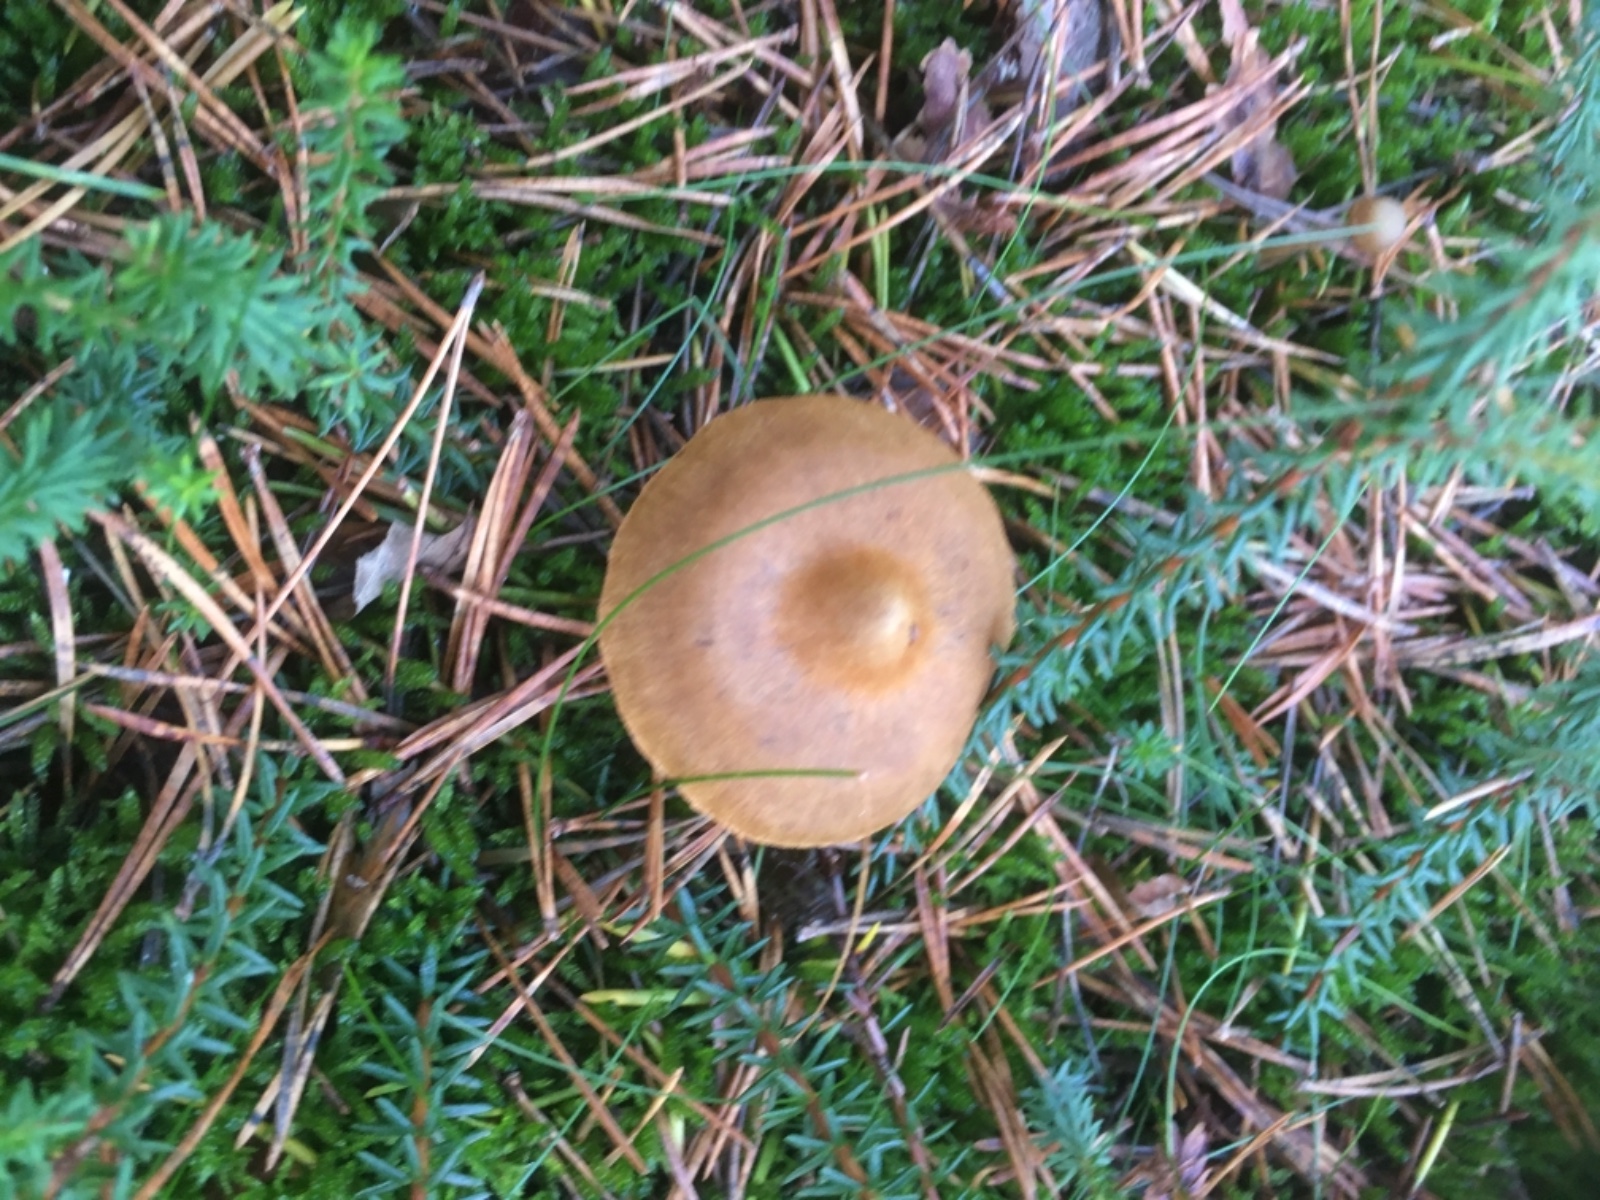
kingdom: Fungi
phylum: Basidiomycota
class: Agaricomycetes
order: Agaricales
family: Cortinariaceae
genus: Cortinarius
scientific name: Cortinarius
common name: cinnoberbladet slørhat
